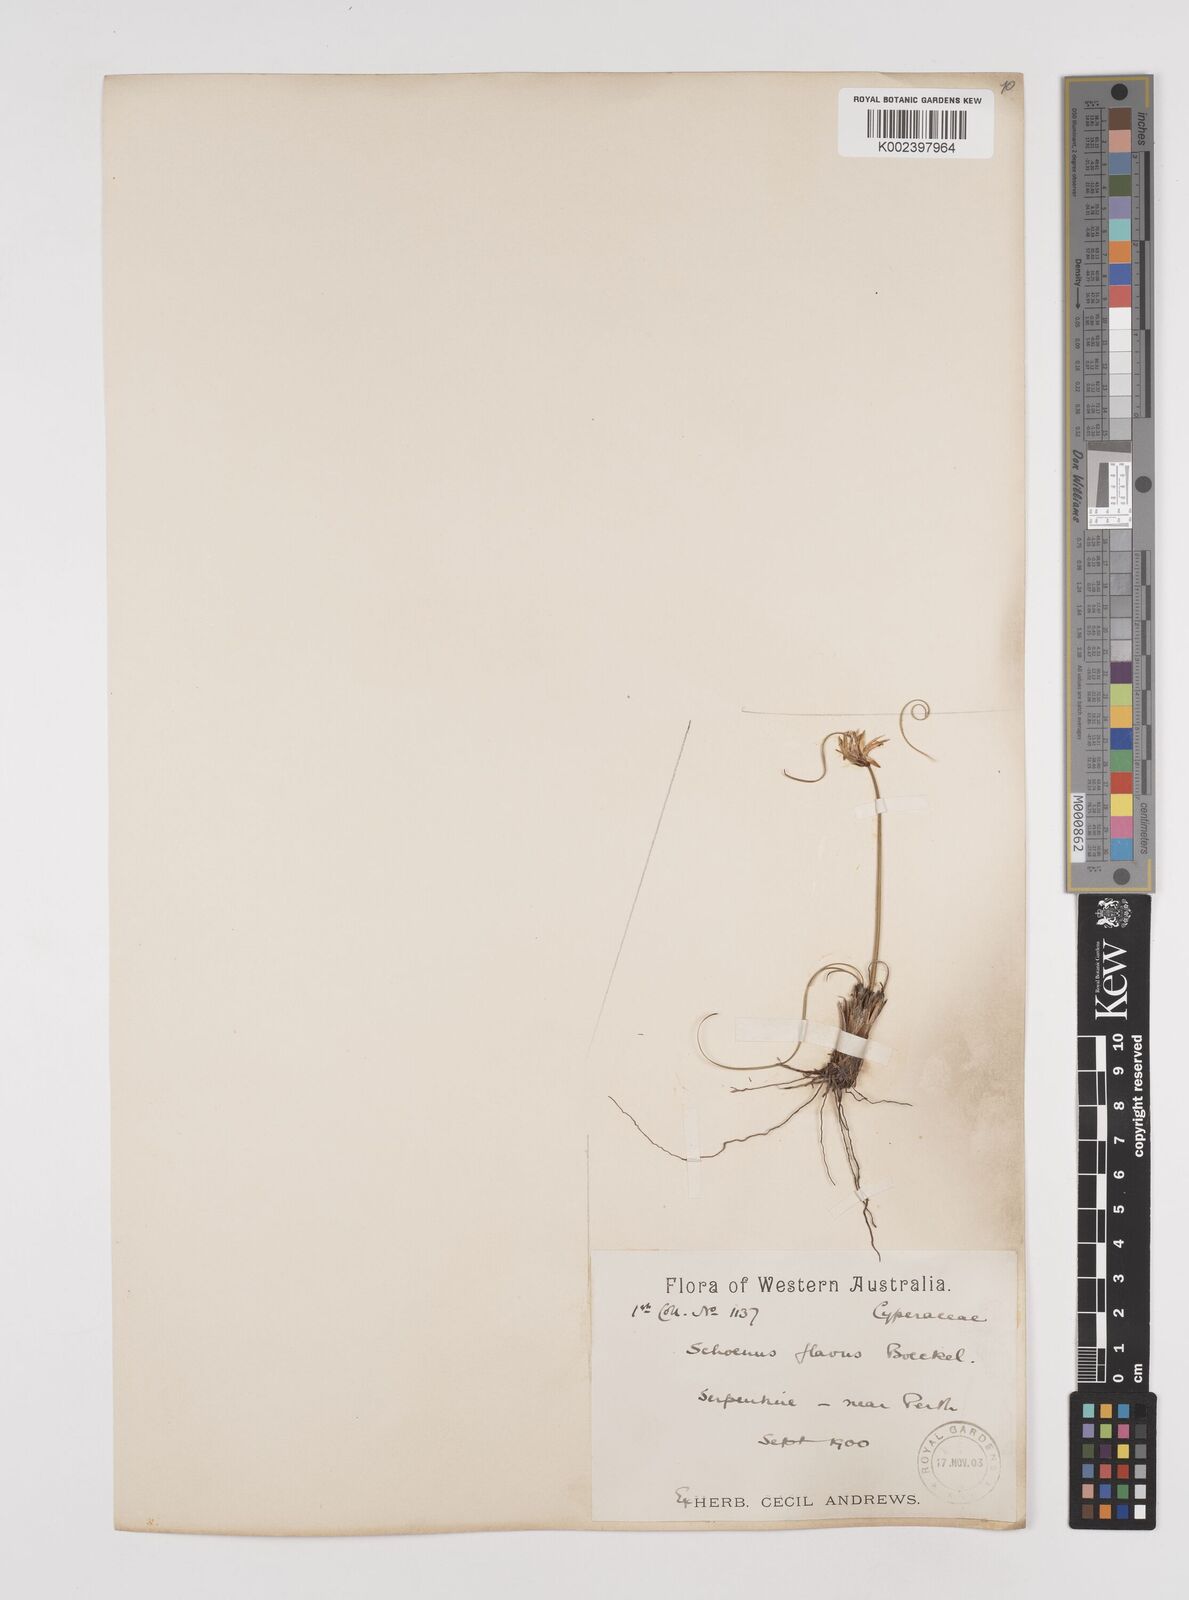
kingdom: Plantae
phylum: Tracheophyta
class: Liliopsida
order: Poales
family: Cyperaceae
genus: Schoenus
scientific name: Schoenus subflavus
